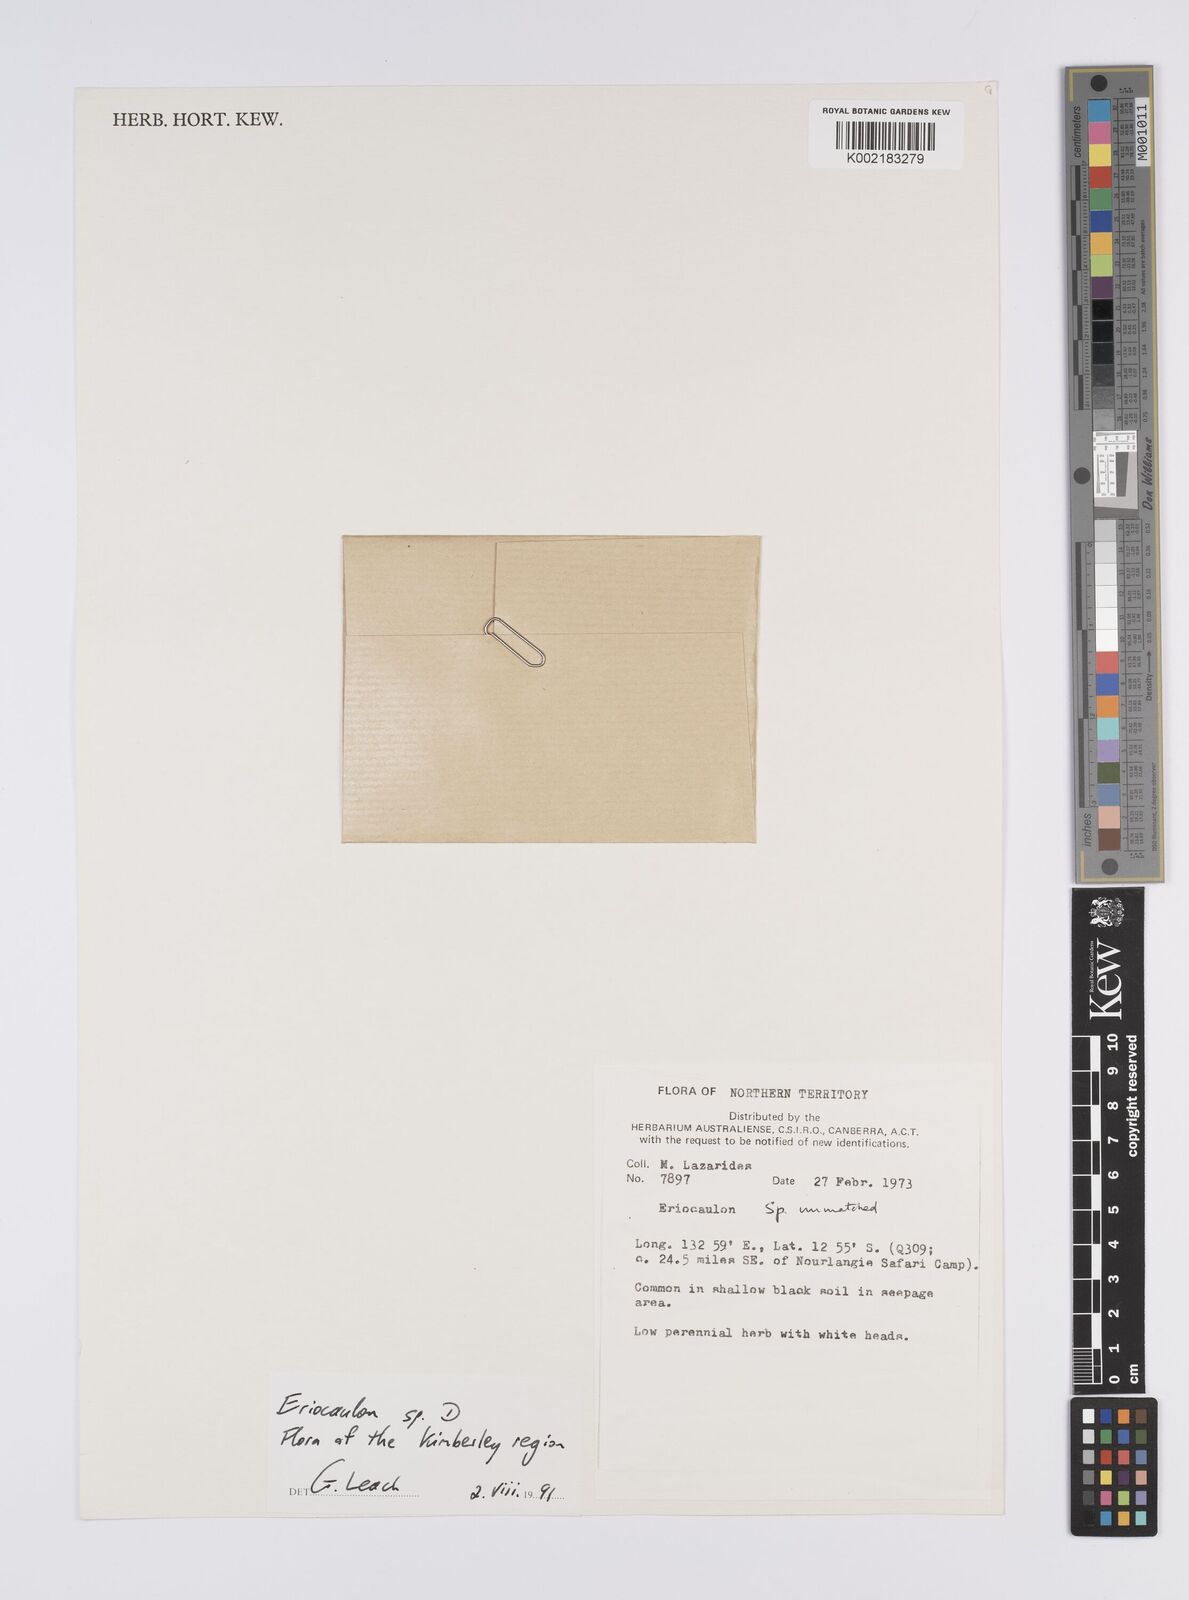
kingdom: Plantae
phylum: Tracheophyta
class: Liliopsida
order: Poales
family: Eriocaulaceae
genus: Eriocaulon
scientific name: Eriocaulon
